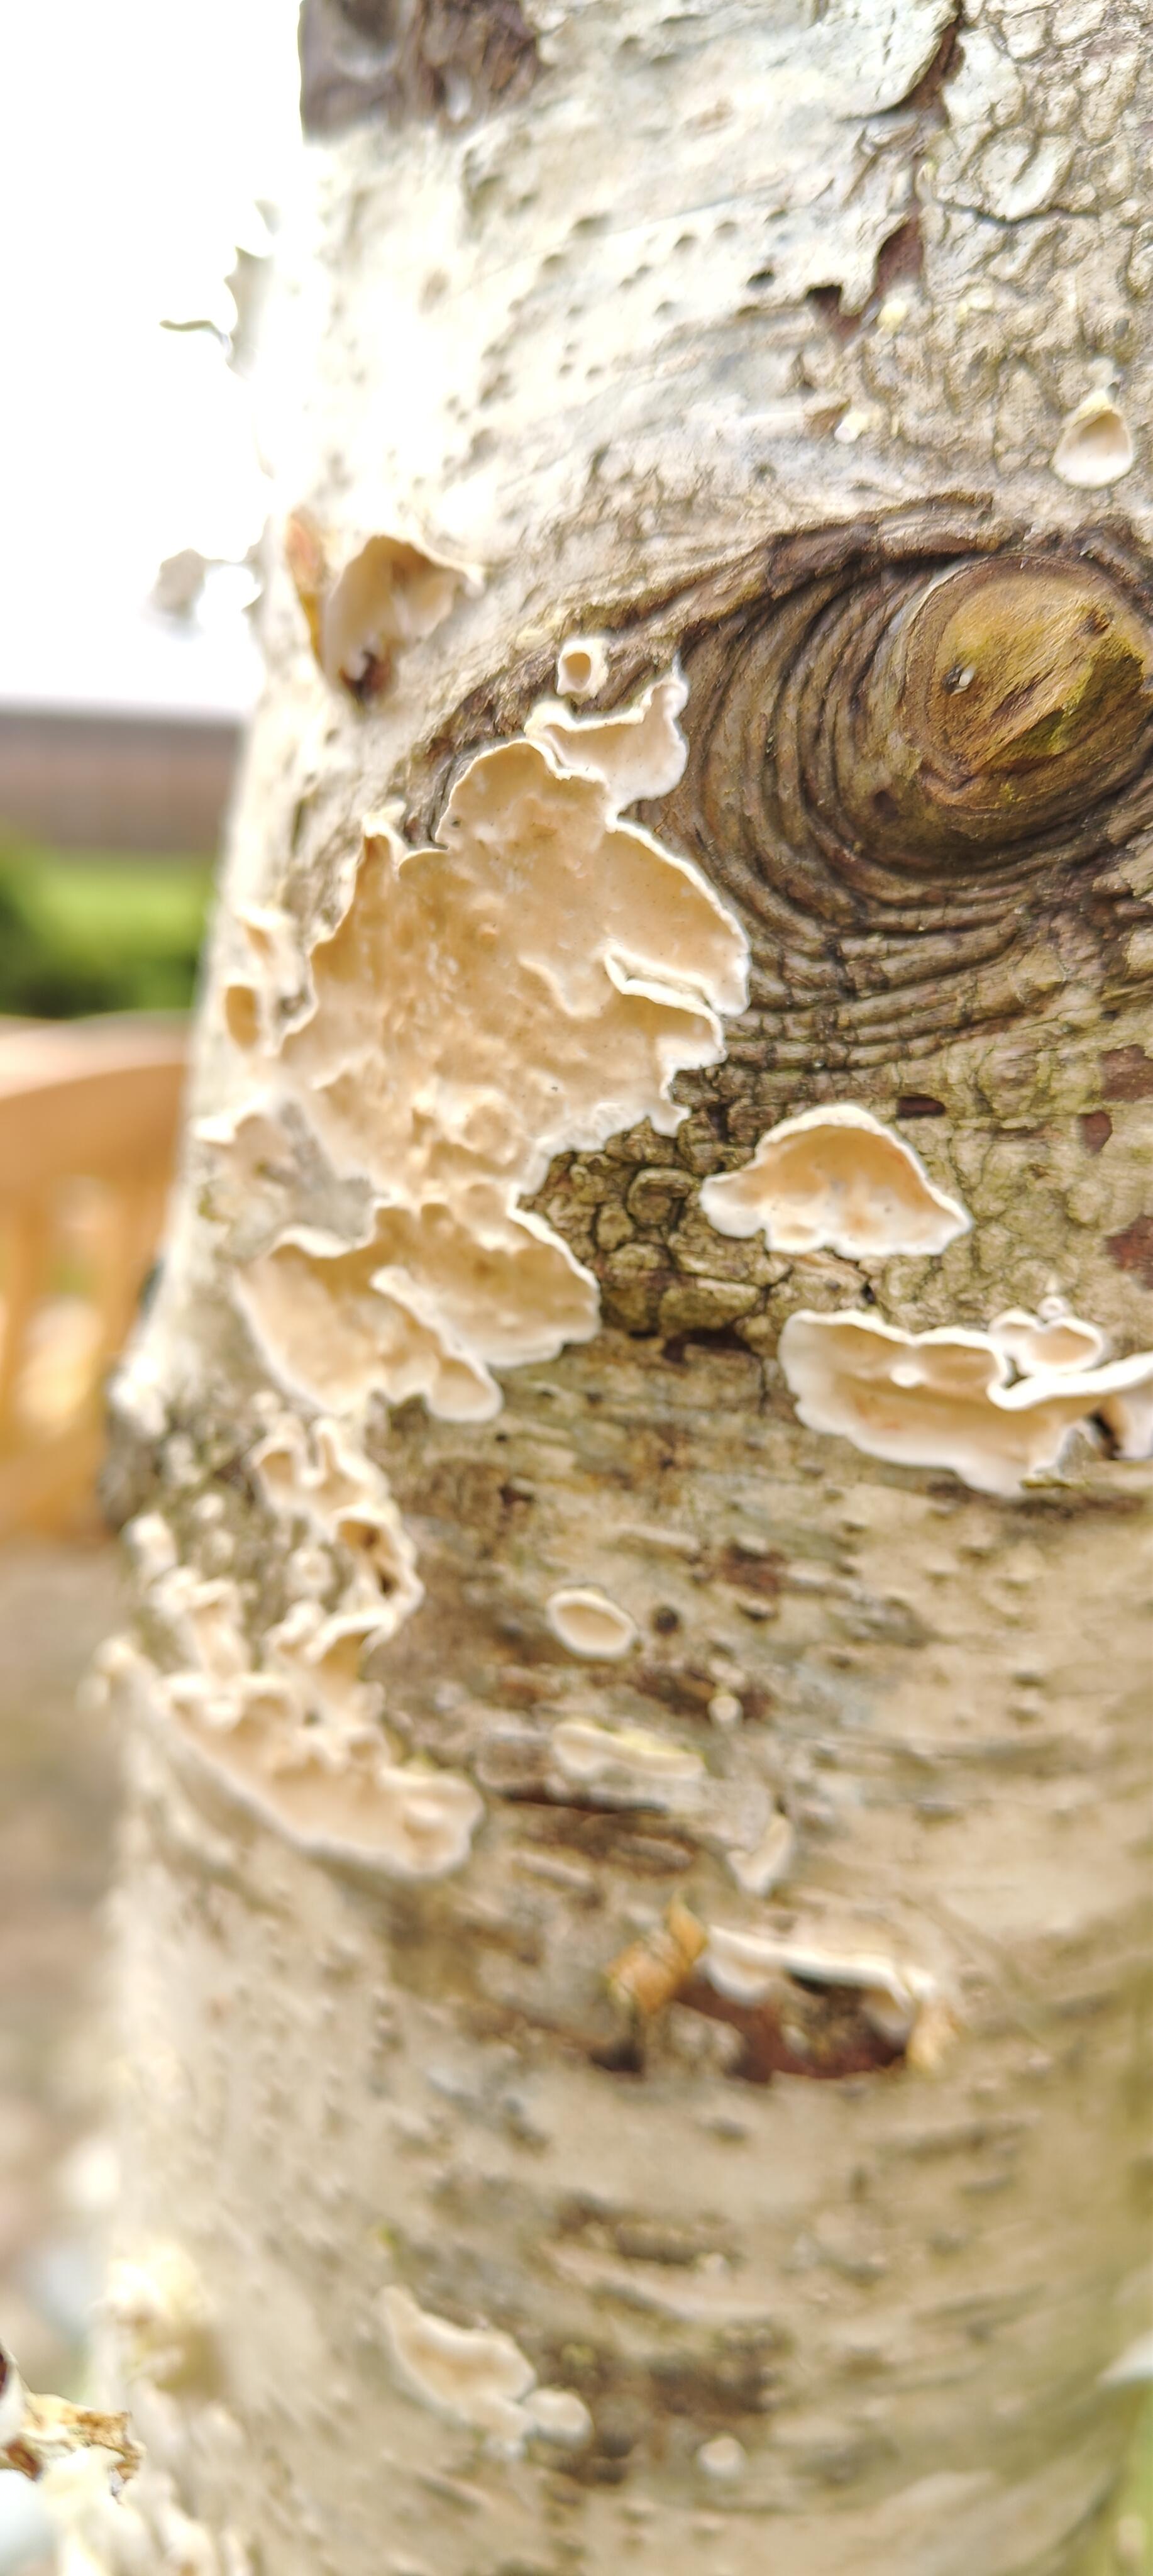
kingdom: Fungi
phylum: Basidiomycota
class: Agaricomycetes
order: Polyporales
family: Irpicaceae
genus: Byssomerulius
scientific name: Byssomerulius corium
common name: læder-åresvamp
